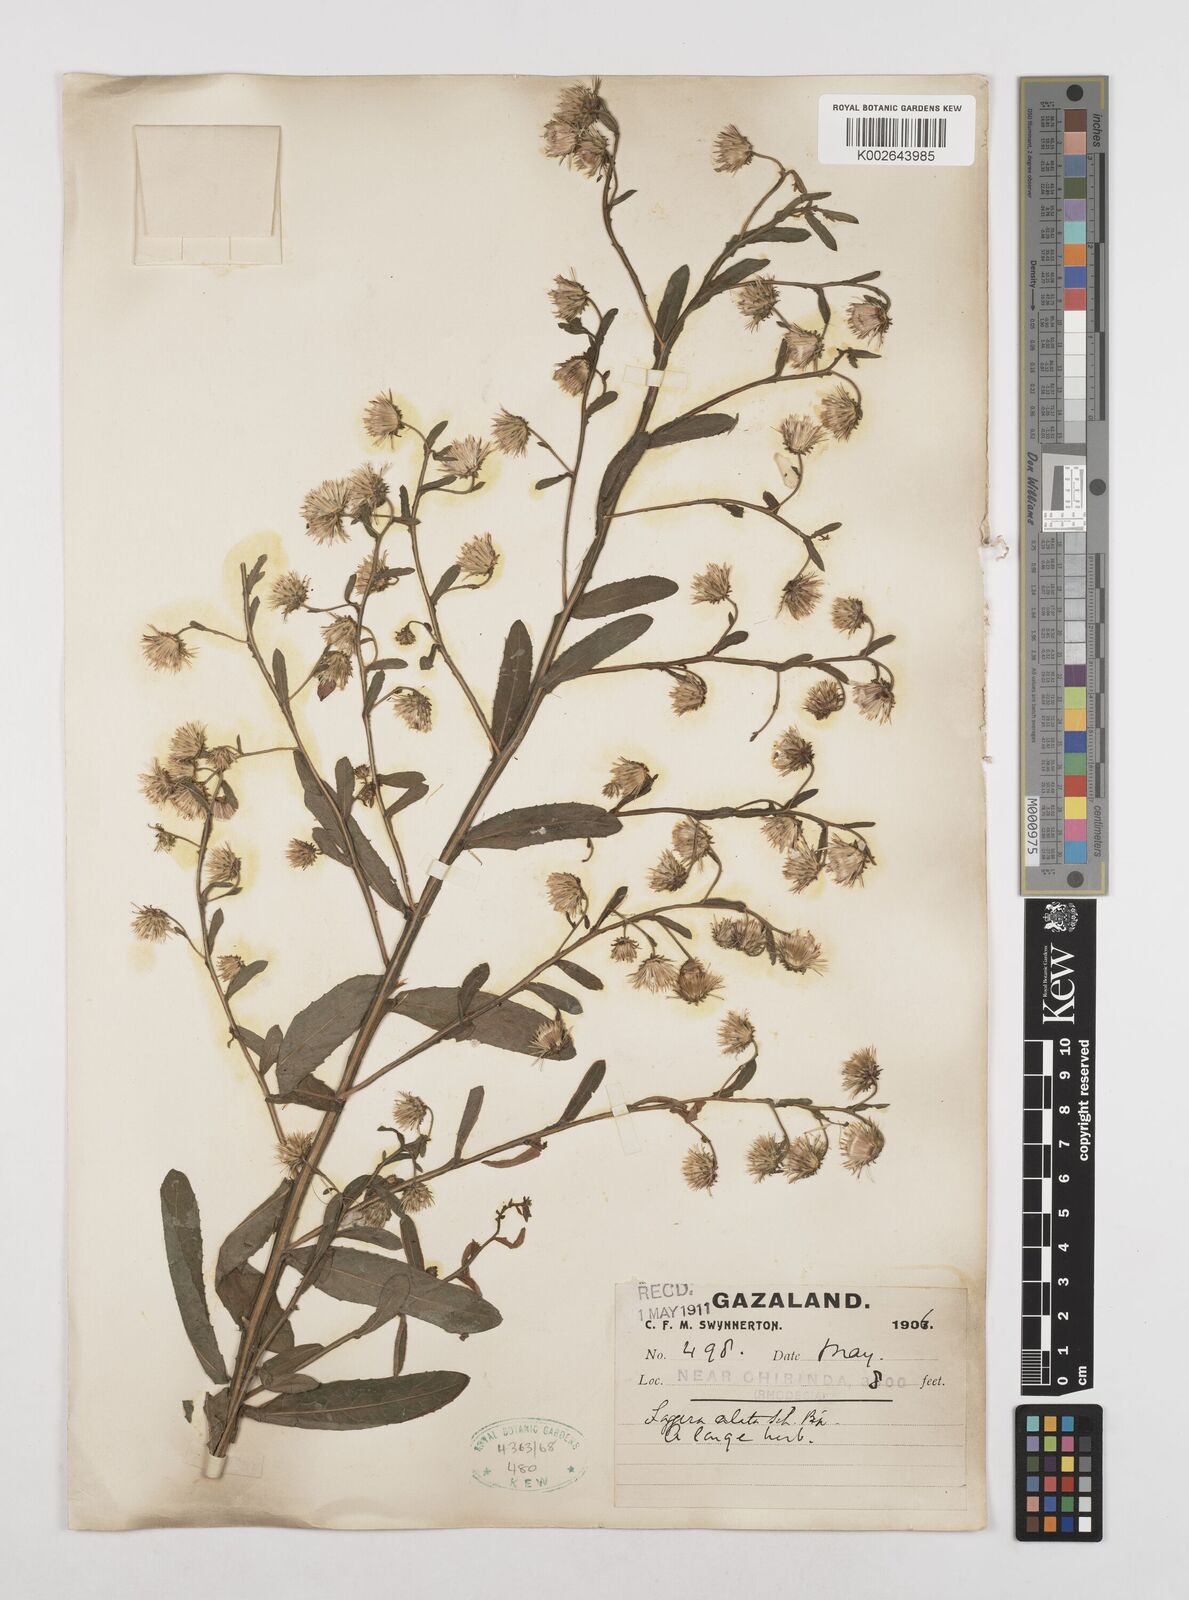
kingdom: Plantae
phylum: Tracheophyta
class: Magnoliopsida
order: Asterales
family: Asteraceae
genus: Laggera
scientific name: Laggera crispata
